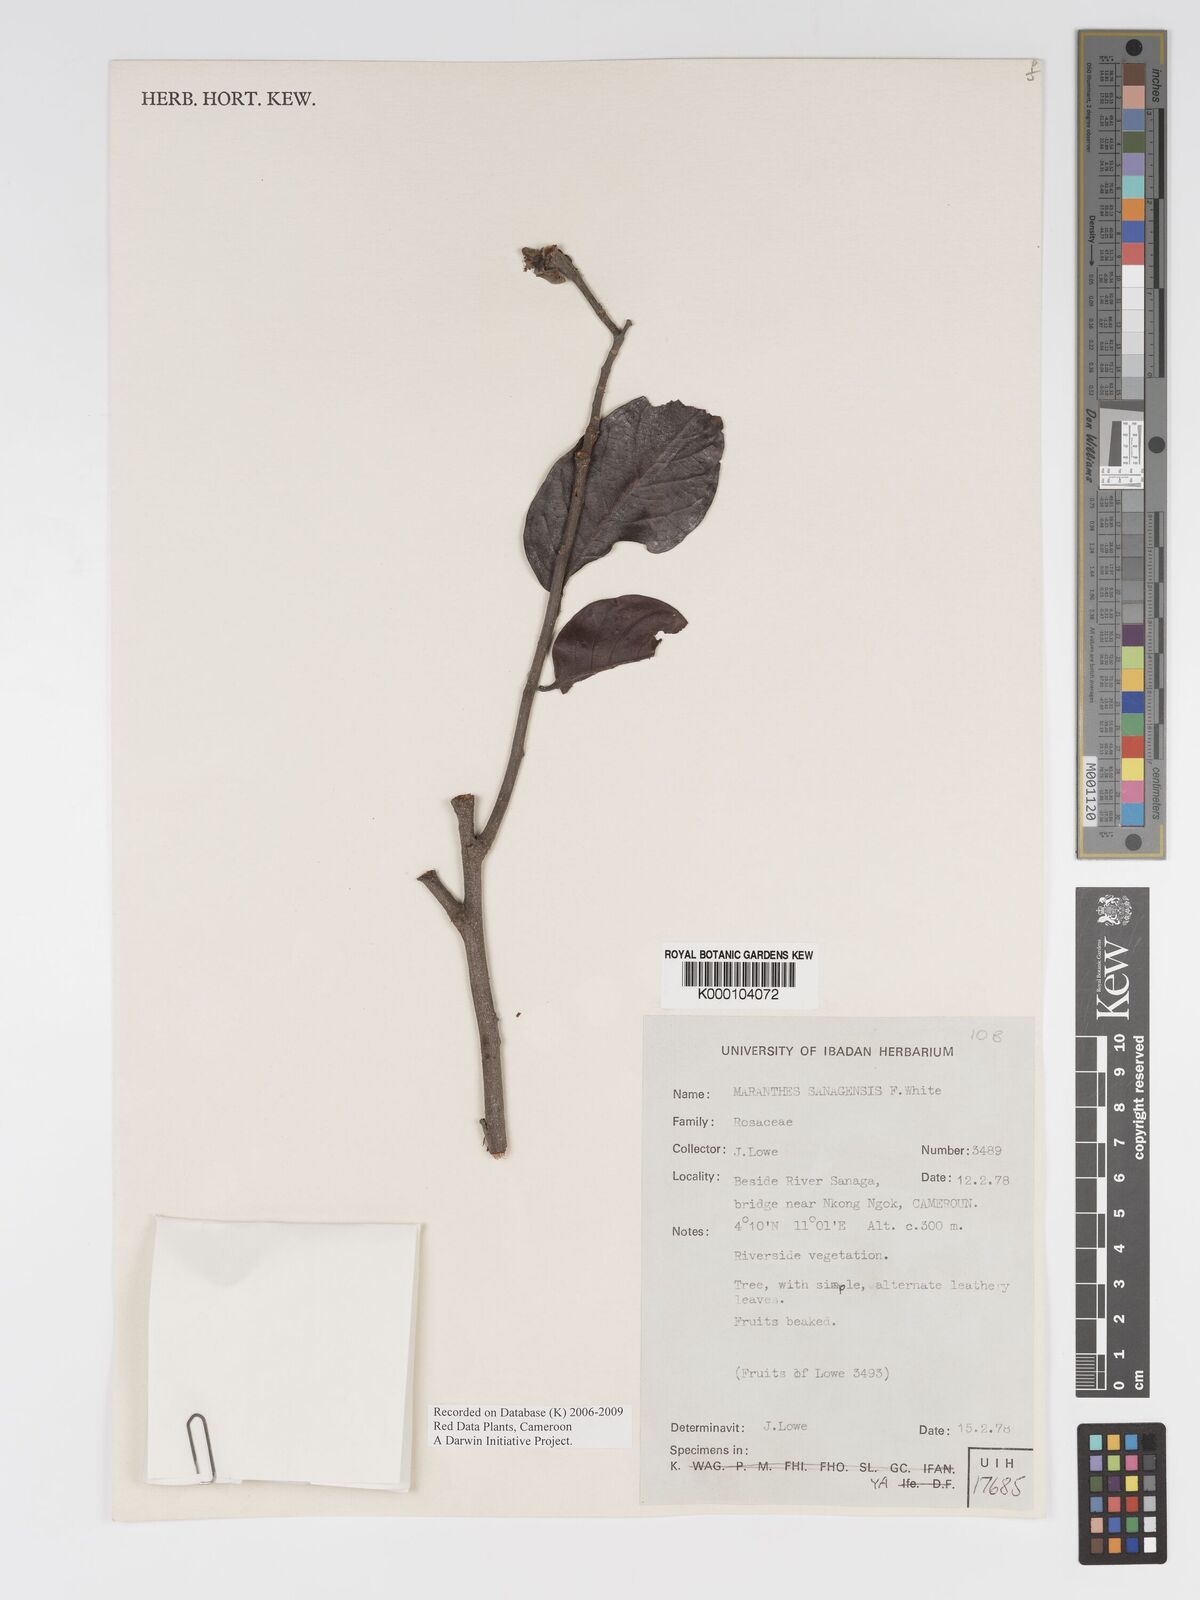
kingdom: Plantae
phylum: Tracheophyta
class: Magnoliopsida
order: Malpighiales
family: Chrysobalanaceae
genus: Maranthes
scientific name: Maranthes sanagensis
